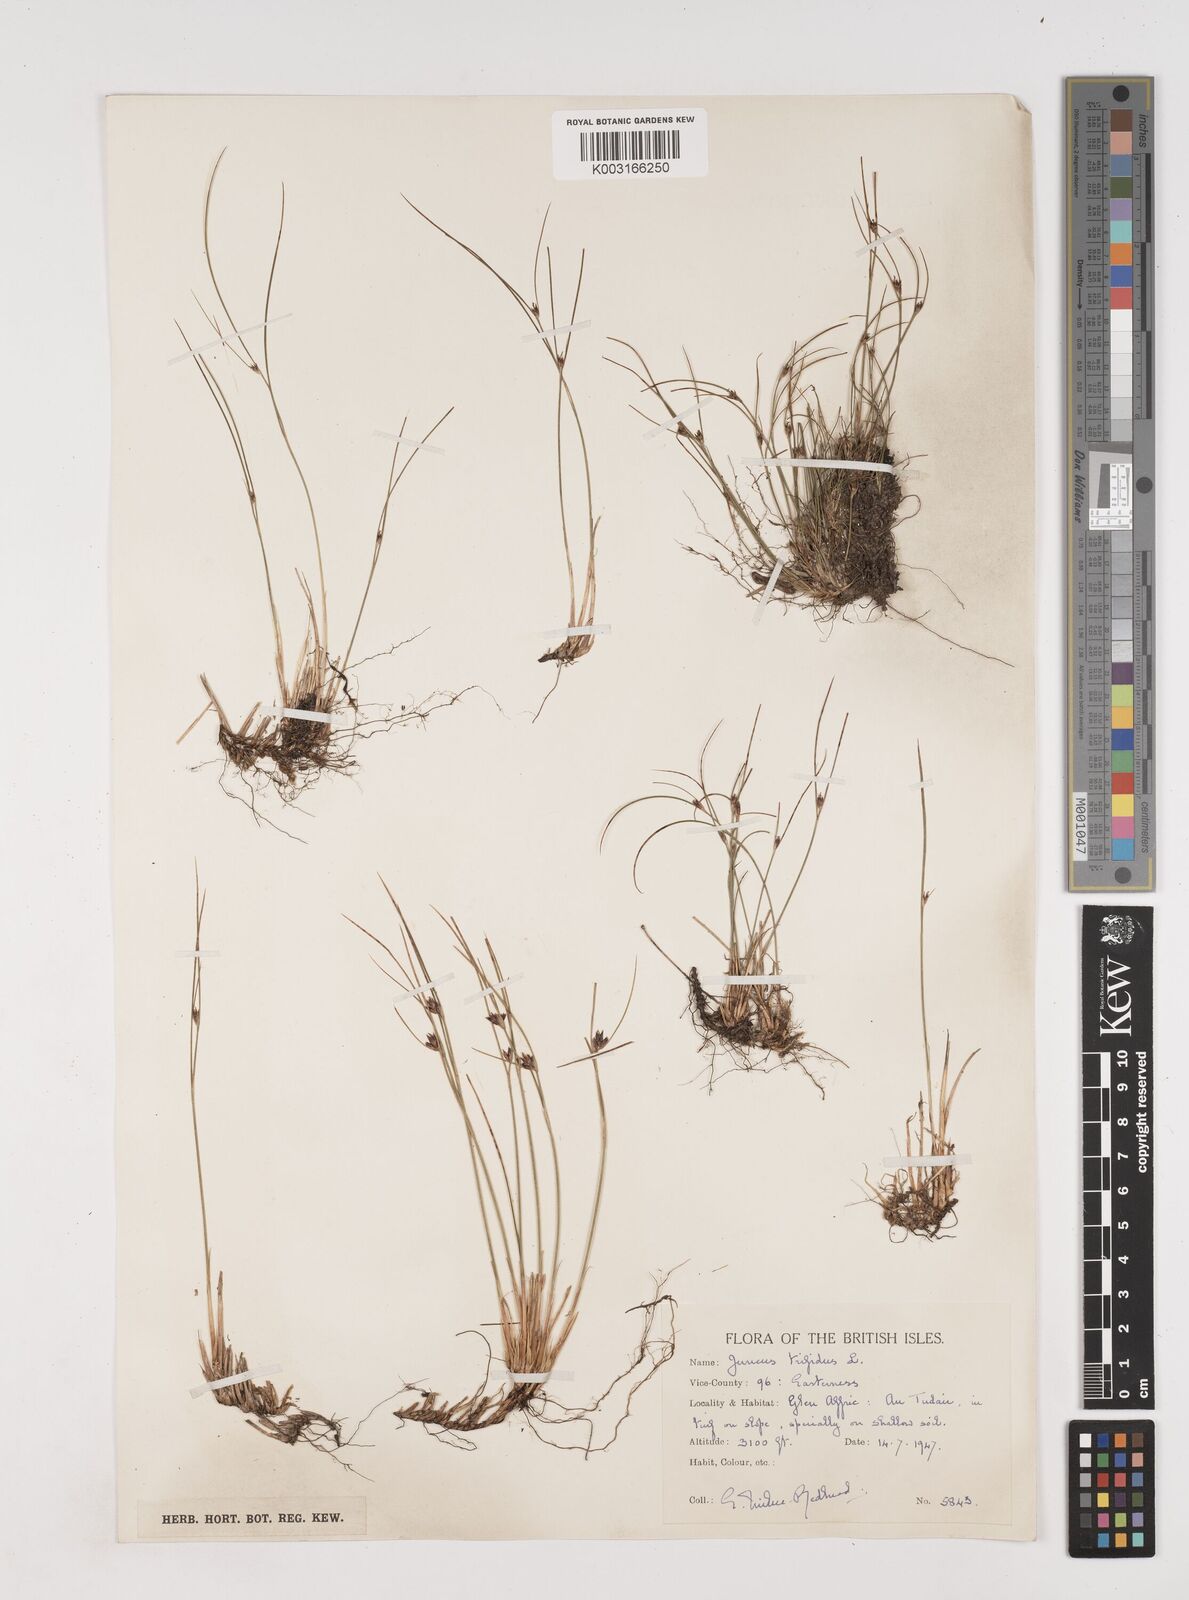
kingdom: Plantae
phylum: Tracheophyta
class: Liliopsida
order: Poales
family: Juncaceae
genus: Oreojuncus
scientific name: Oreojuncus trifidus
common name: Highland rush
